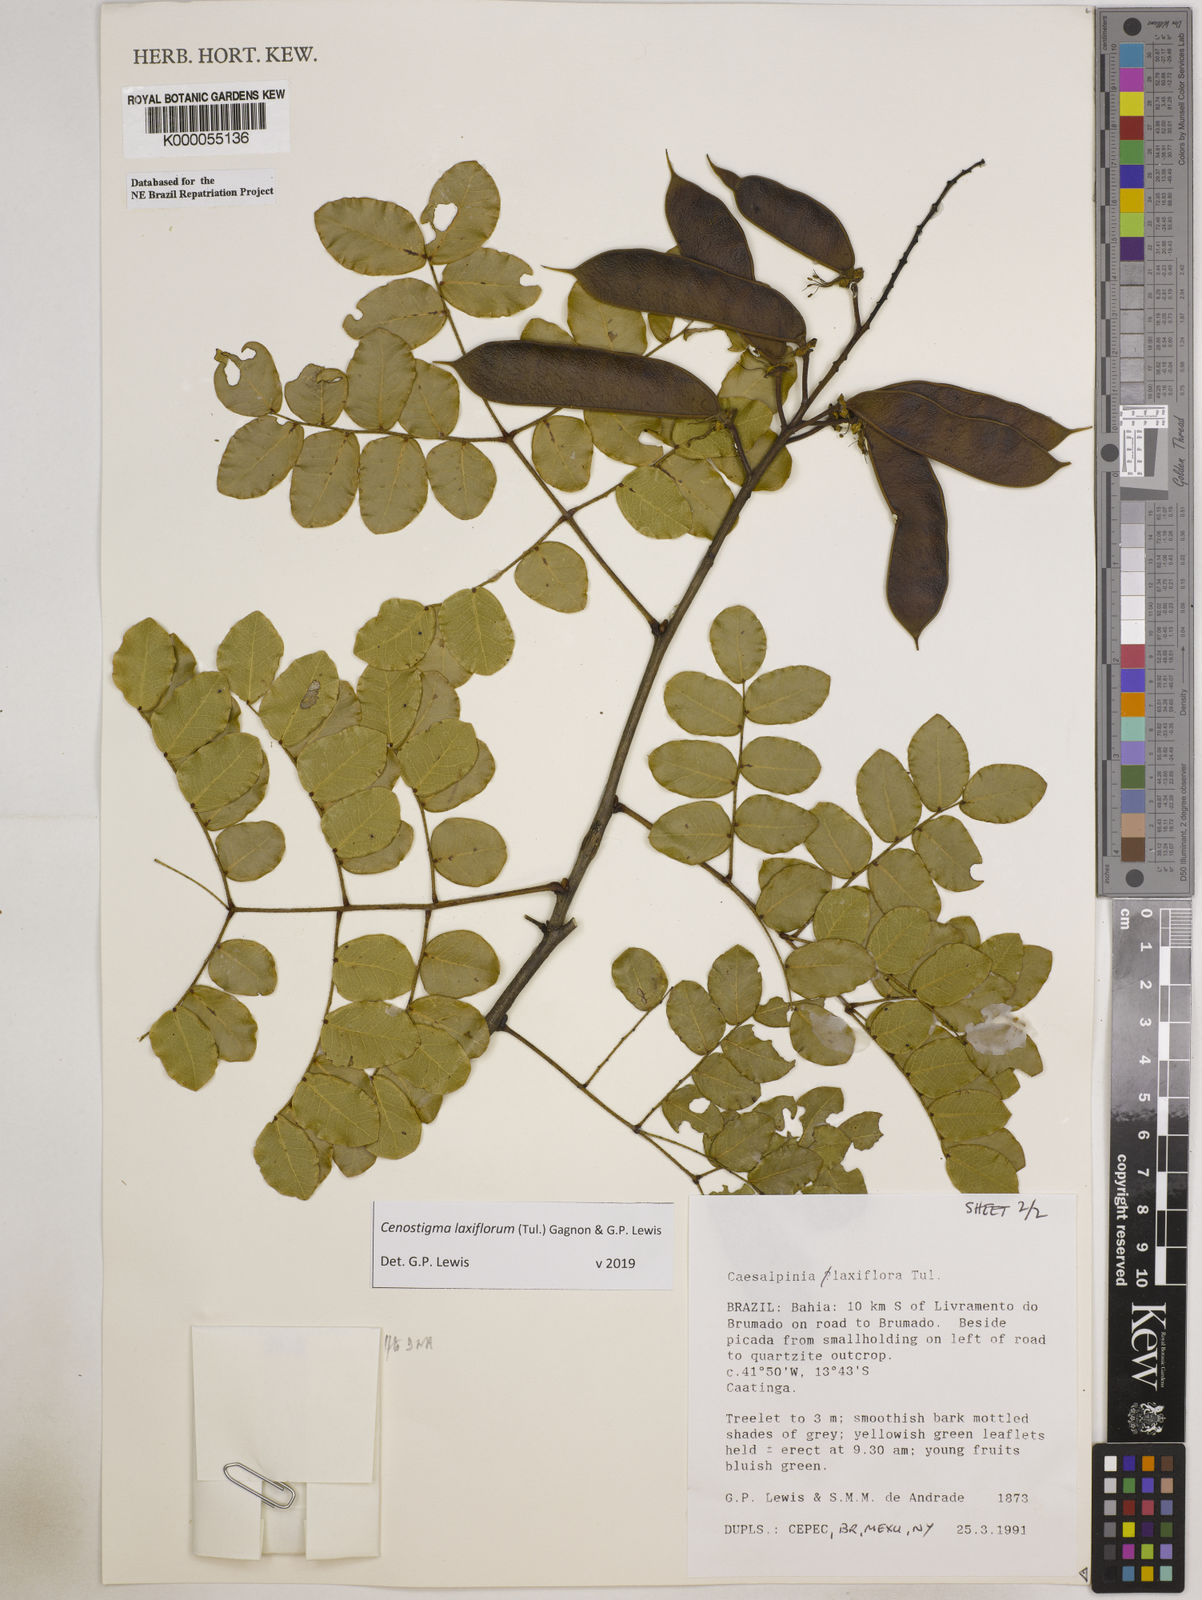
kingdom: Plantae
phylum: Tracheophyta
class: Magnoliopsida
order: Fabales
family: Fabaceae
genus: Cenostigma
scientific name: Cenostigma laxiflorum
